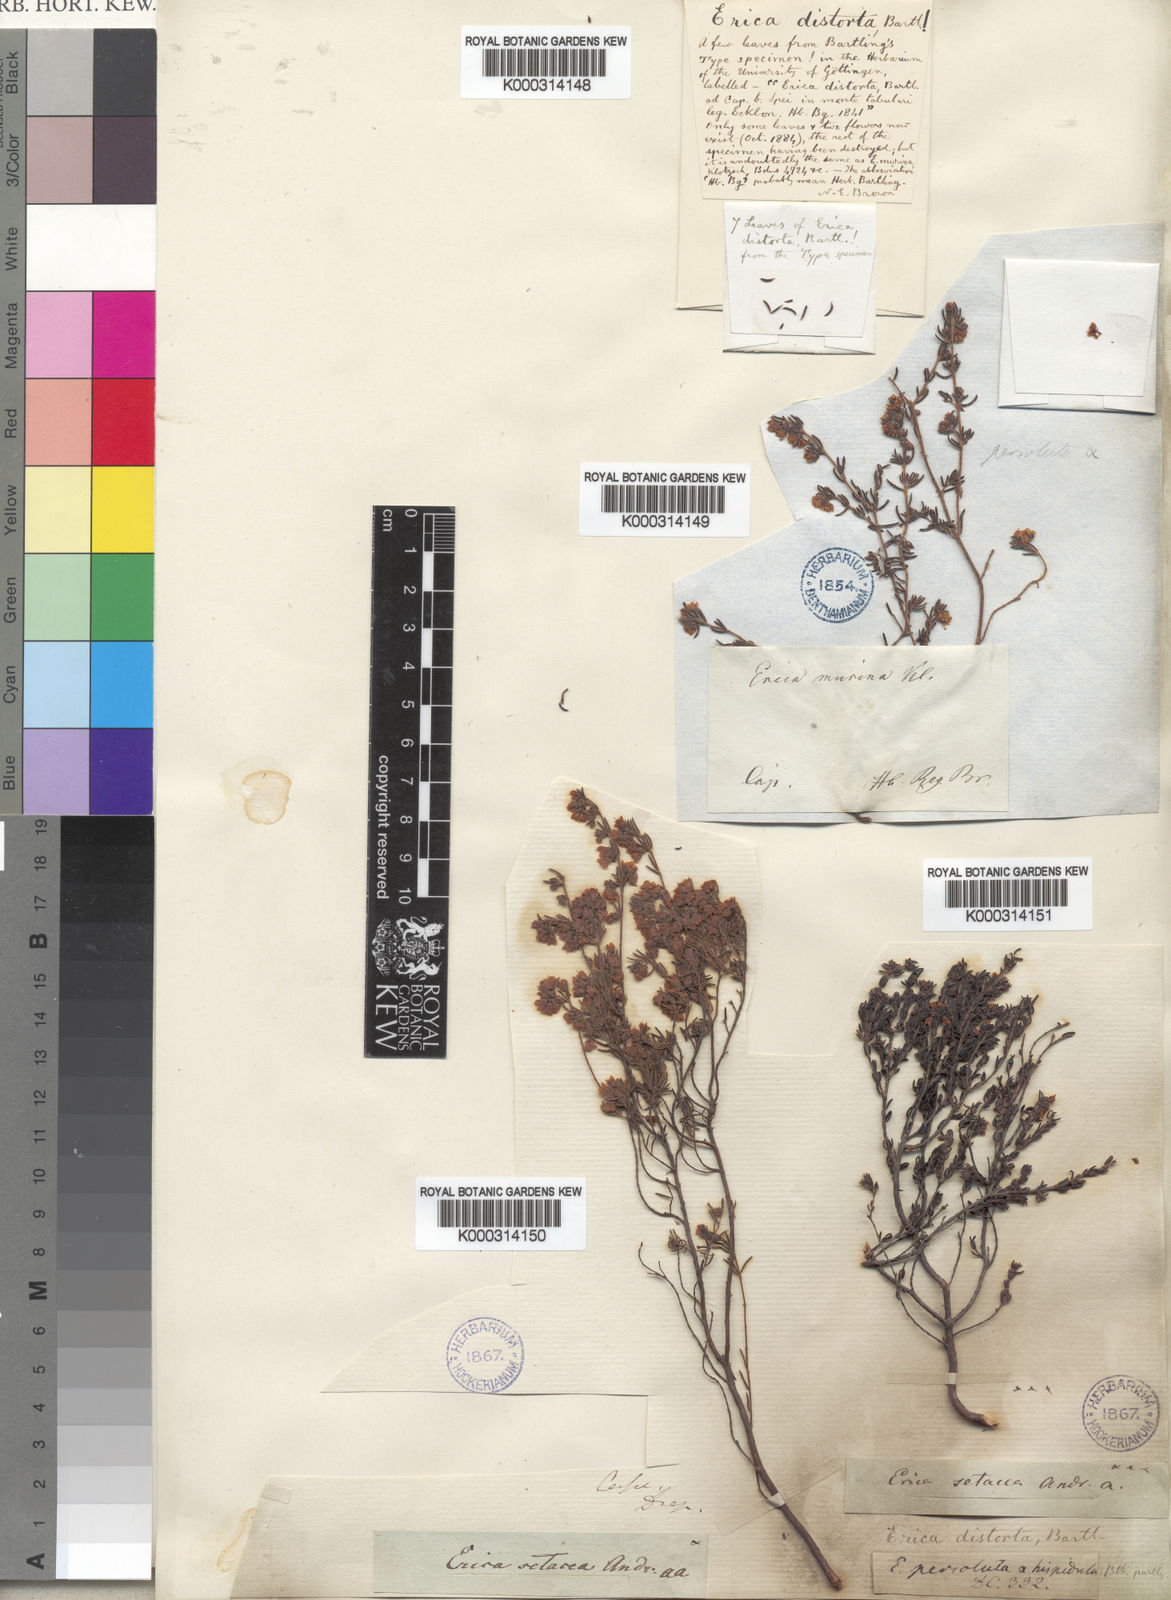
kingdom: Plantae
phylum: Tracheophyta
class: Magnoliopsida
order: Ericales
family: Ericaceae
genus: Erica
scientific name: Erica distorta
